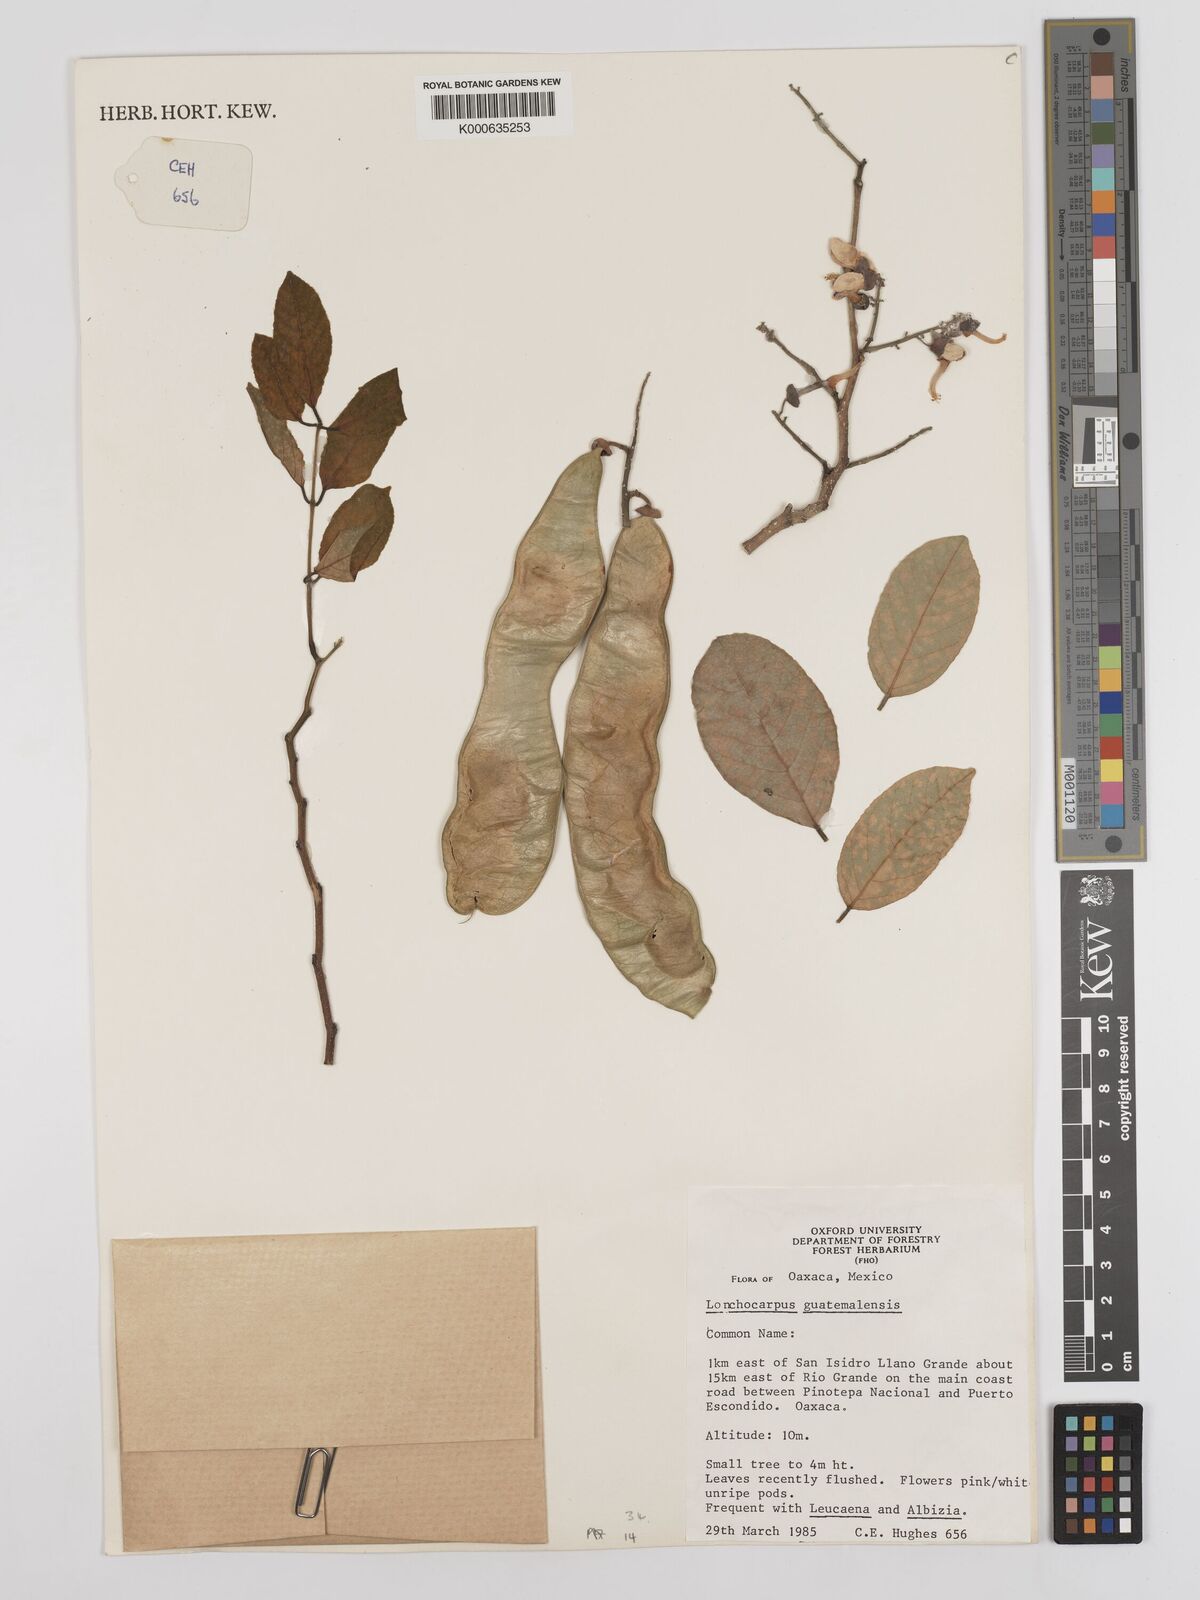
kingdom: Plantae
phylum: Tracheophyta
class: Magnoliopsida
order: Fabales
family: Fabaceae
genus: Lonchocarpus
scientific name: Lonchocarpus guatemalensis
